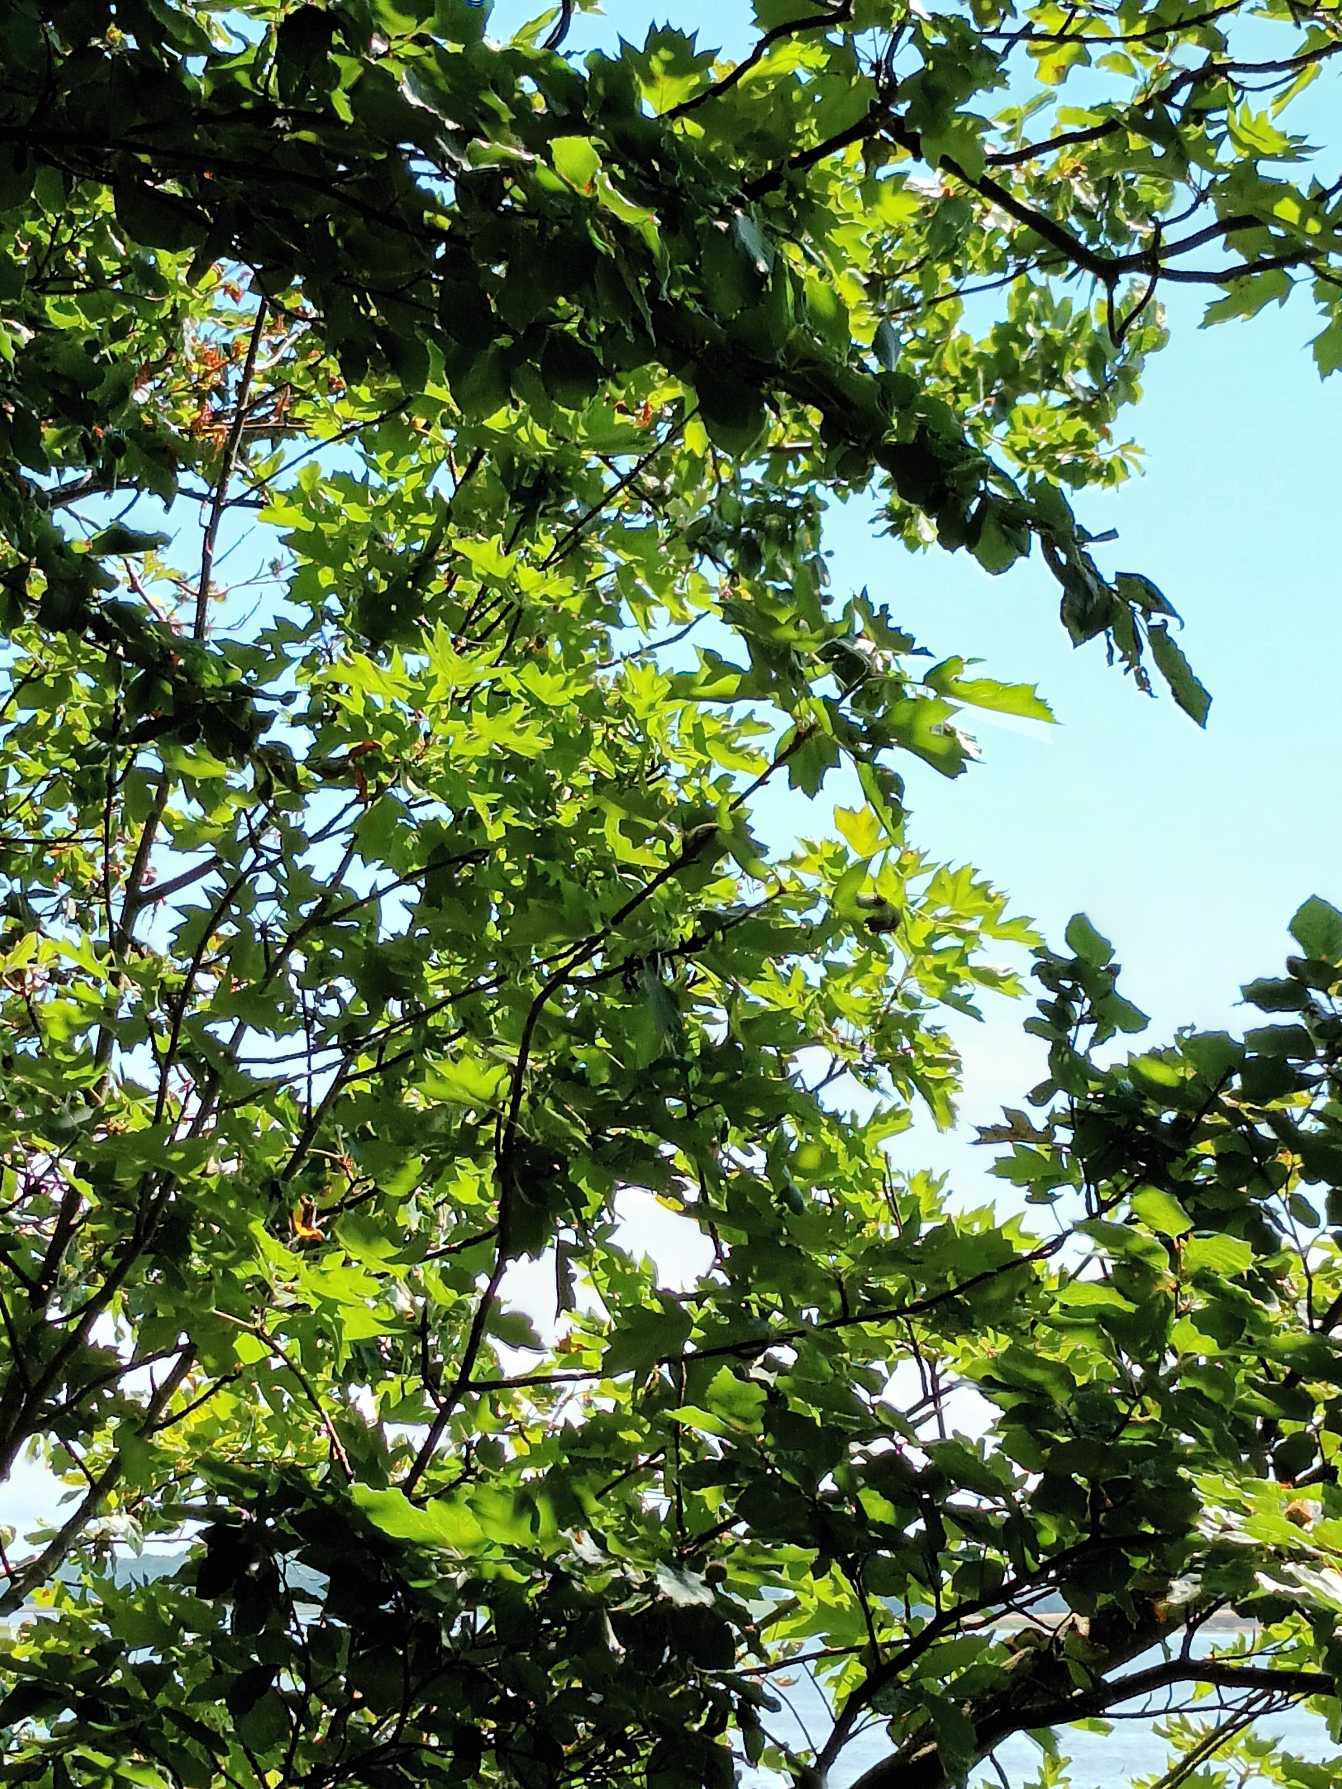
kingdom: Plantae
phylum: Tracheophyta
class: Magnoliopsida
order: Rosales
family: Rosaceae
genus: Torminalis
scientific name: Torminalis glaberrima
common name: Tarmvrid-røn
